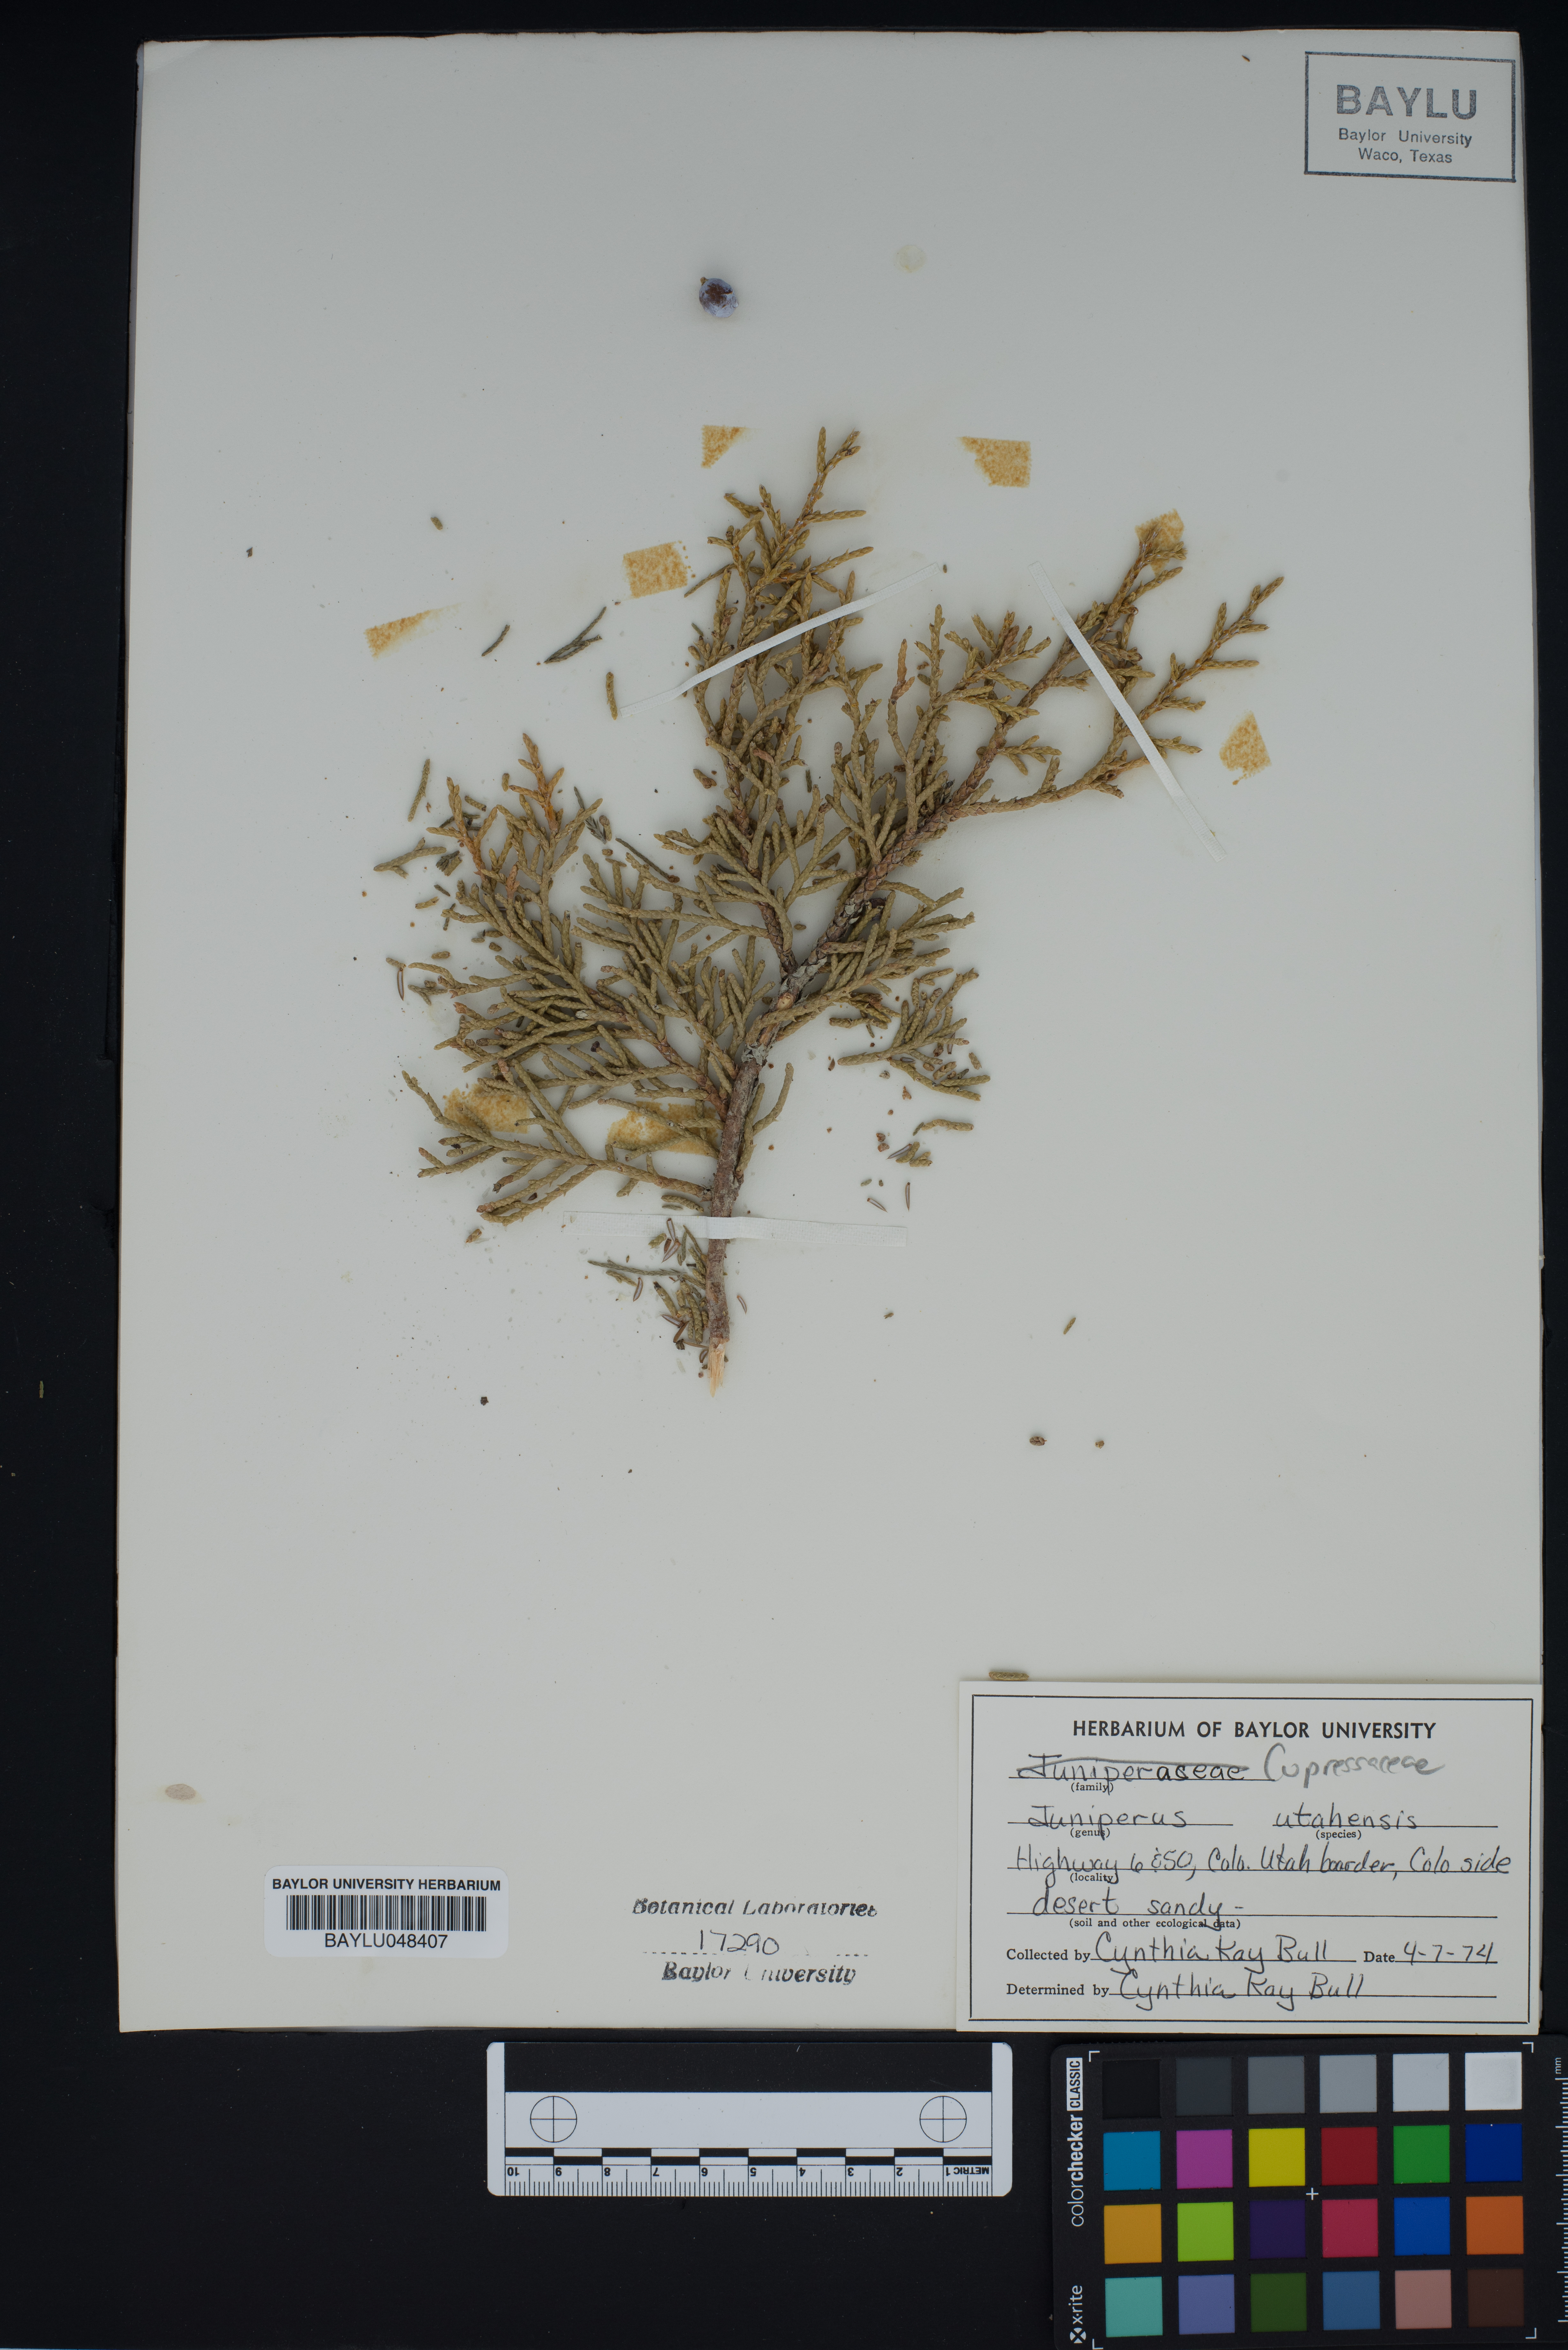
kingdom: Plantae
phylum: Tracheophyta
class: Pinopsida
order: Pinales
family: Cupressaceae
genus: Juniperus
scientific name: Juniperus osteosperma
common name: Utah juniper
